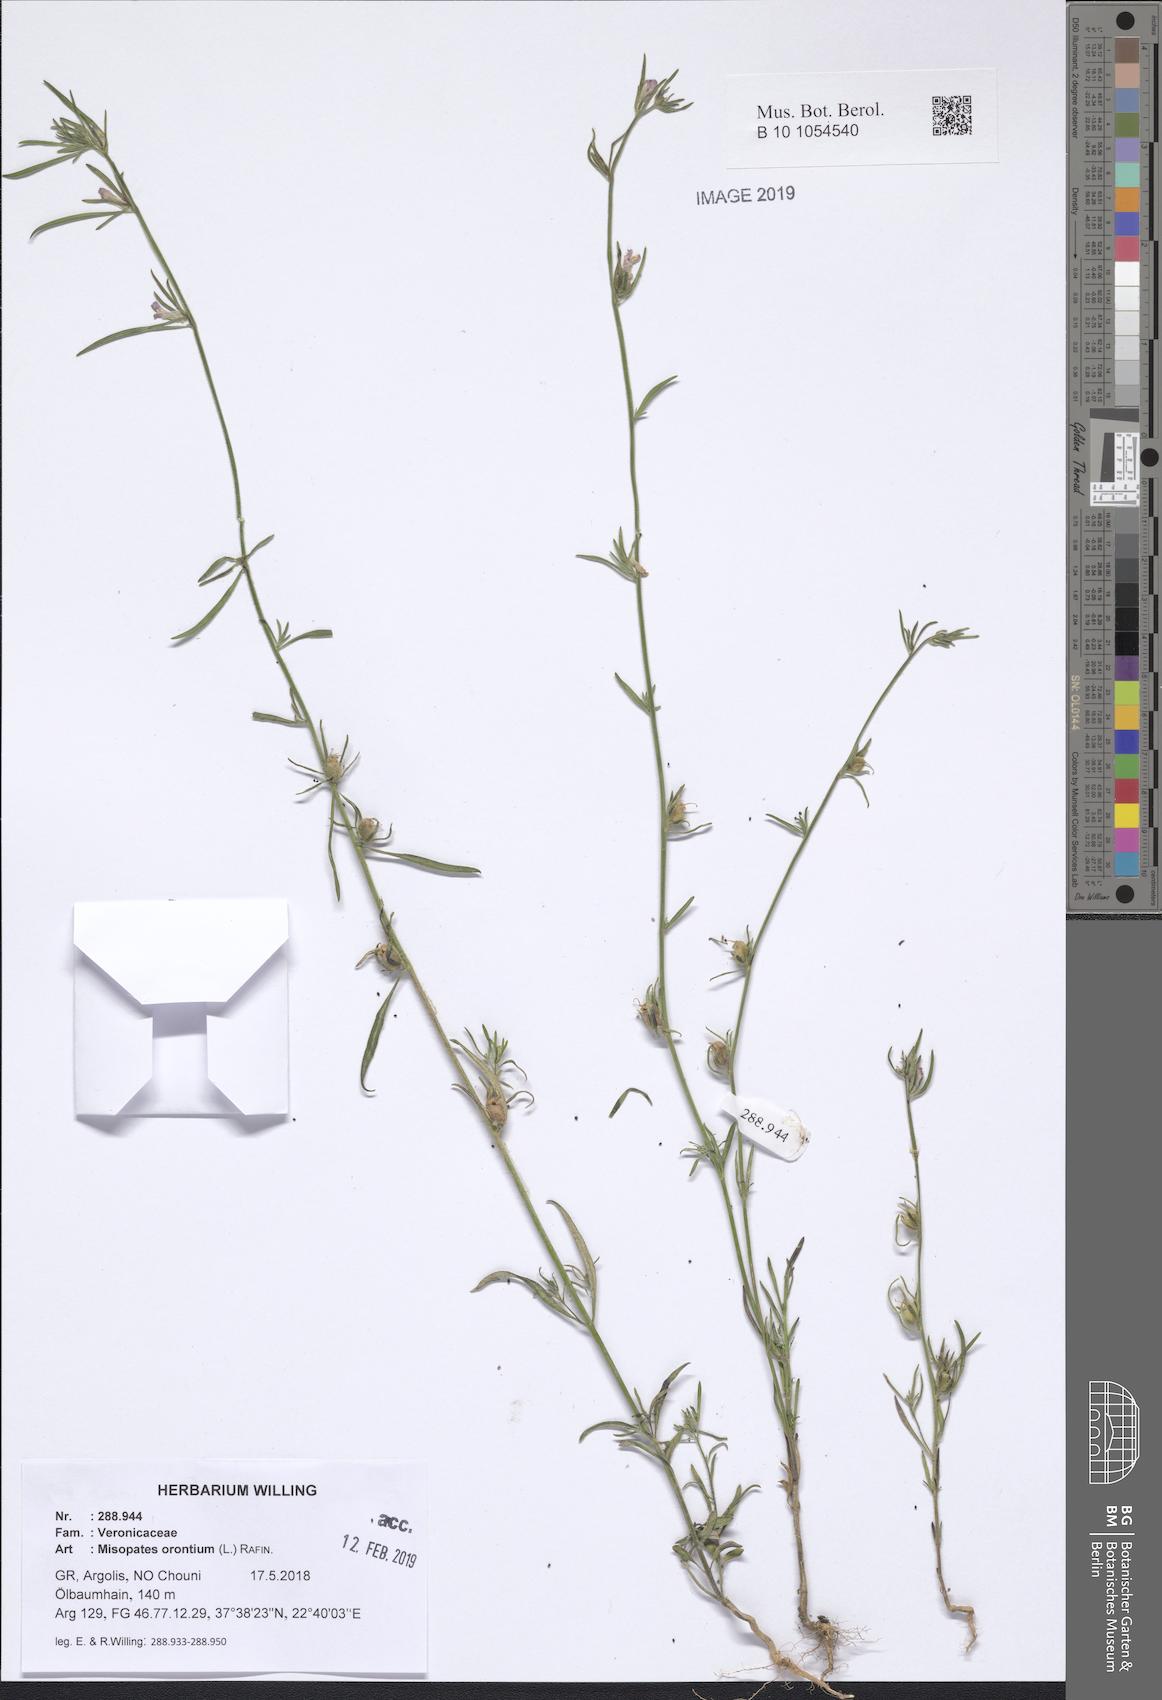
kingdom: Plantae
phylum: Tracheophyta
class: Magnoliopsida
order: Lamiales
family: Plantaginaceae
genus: Misopates
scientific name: Misopates orontium
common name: Weasel's-snout
